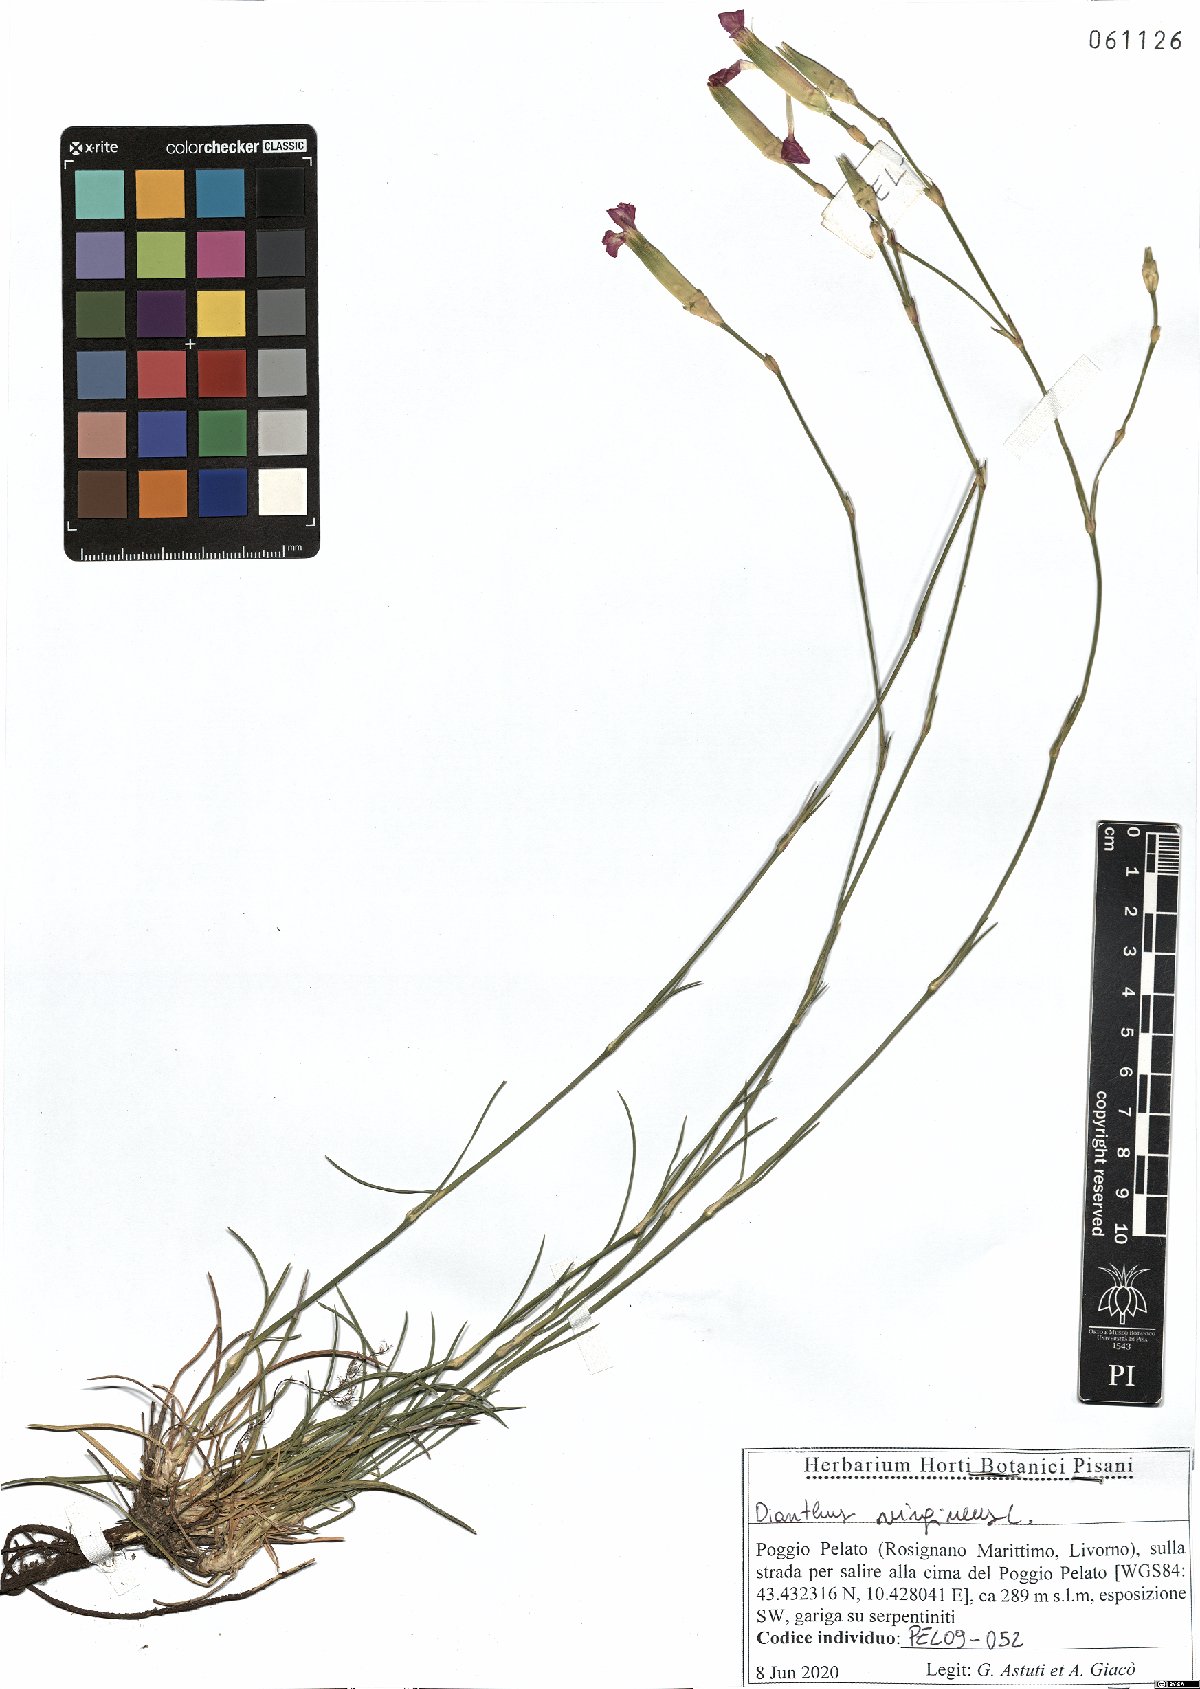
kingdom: Plantae
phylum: Tracheophyta
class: Magnoliopsida
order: Caryophyllales
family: Caryophyllaceae
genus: Dianthus
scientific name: Dianthus virgineus
